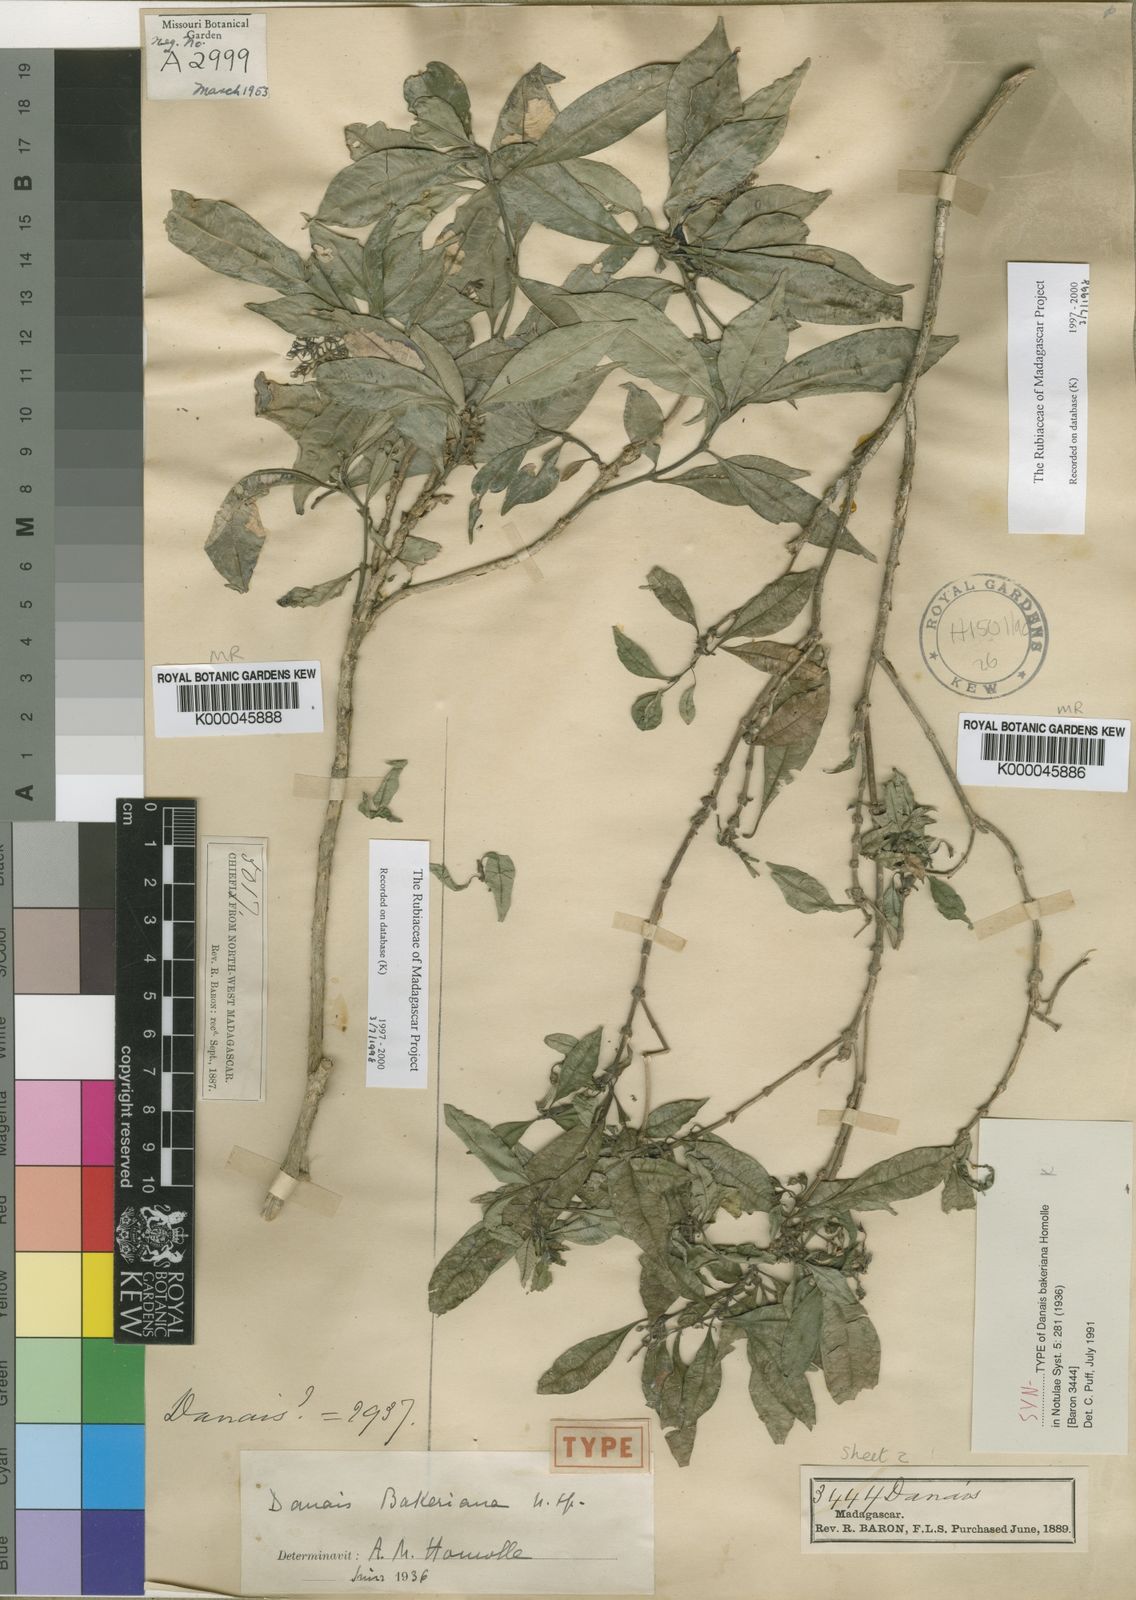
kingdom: Plantae
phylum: Tracheophyta
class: Magnoliopsida
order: Gentianales
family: Rubiaceae
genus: Payera
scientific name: Payera bakeriana
